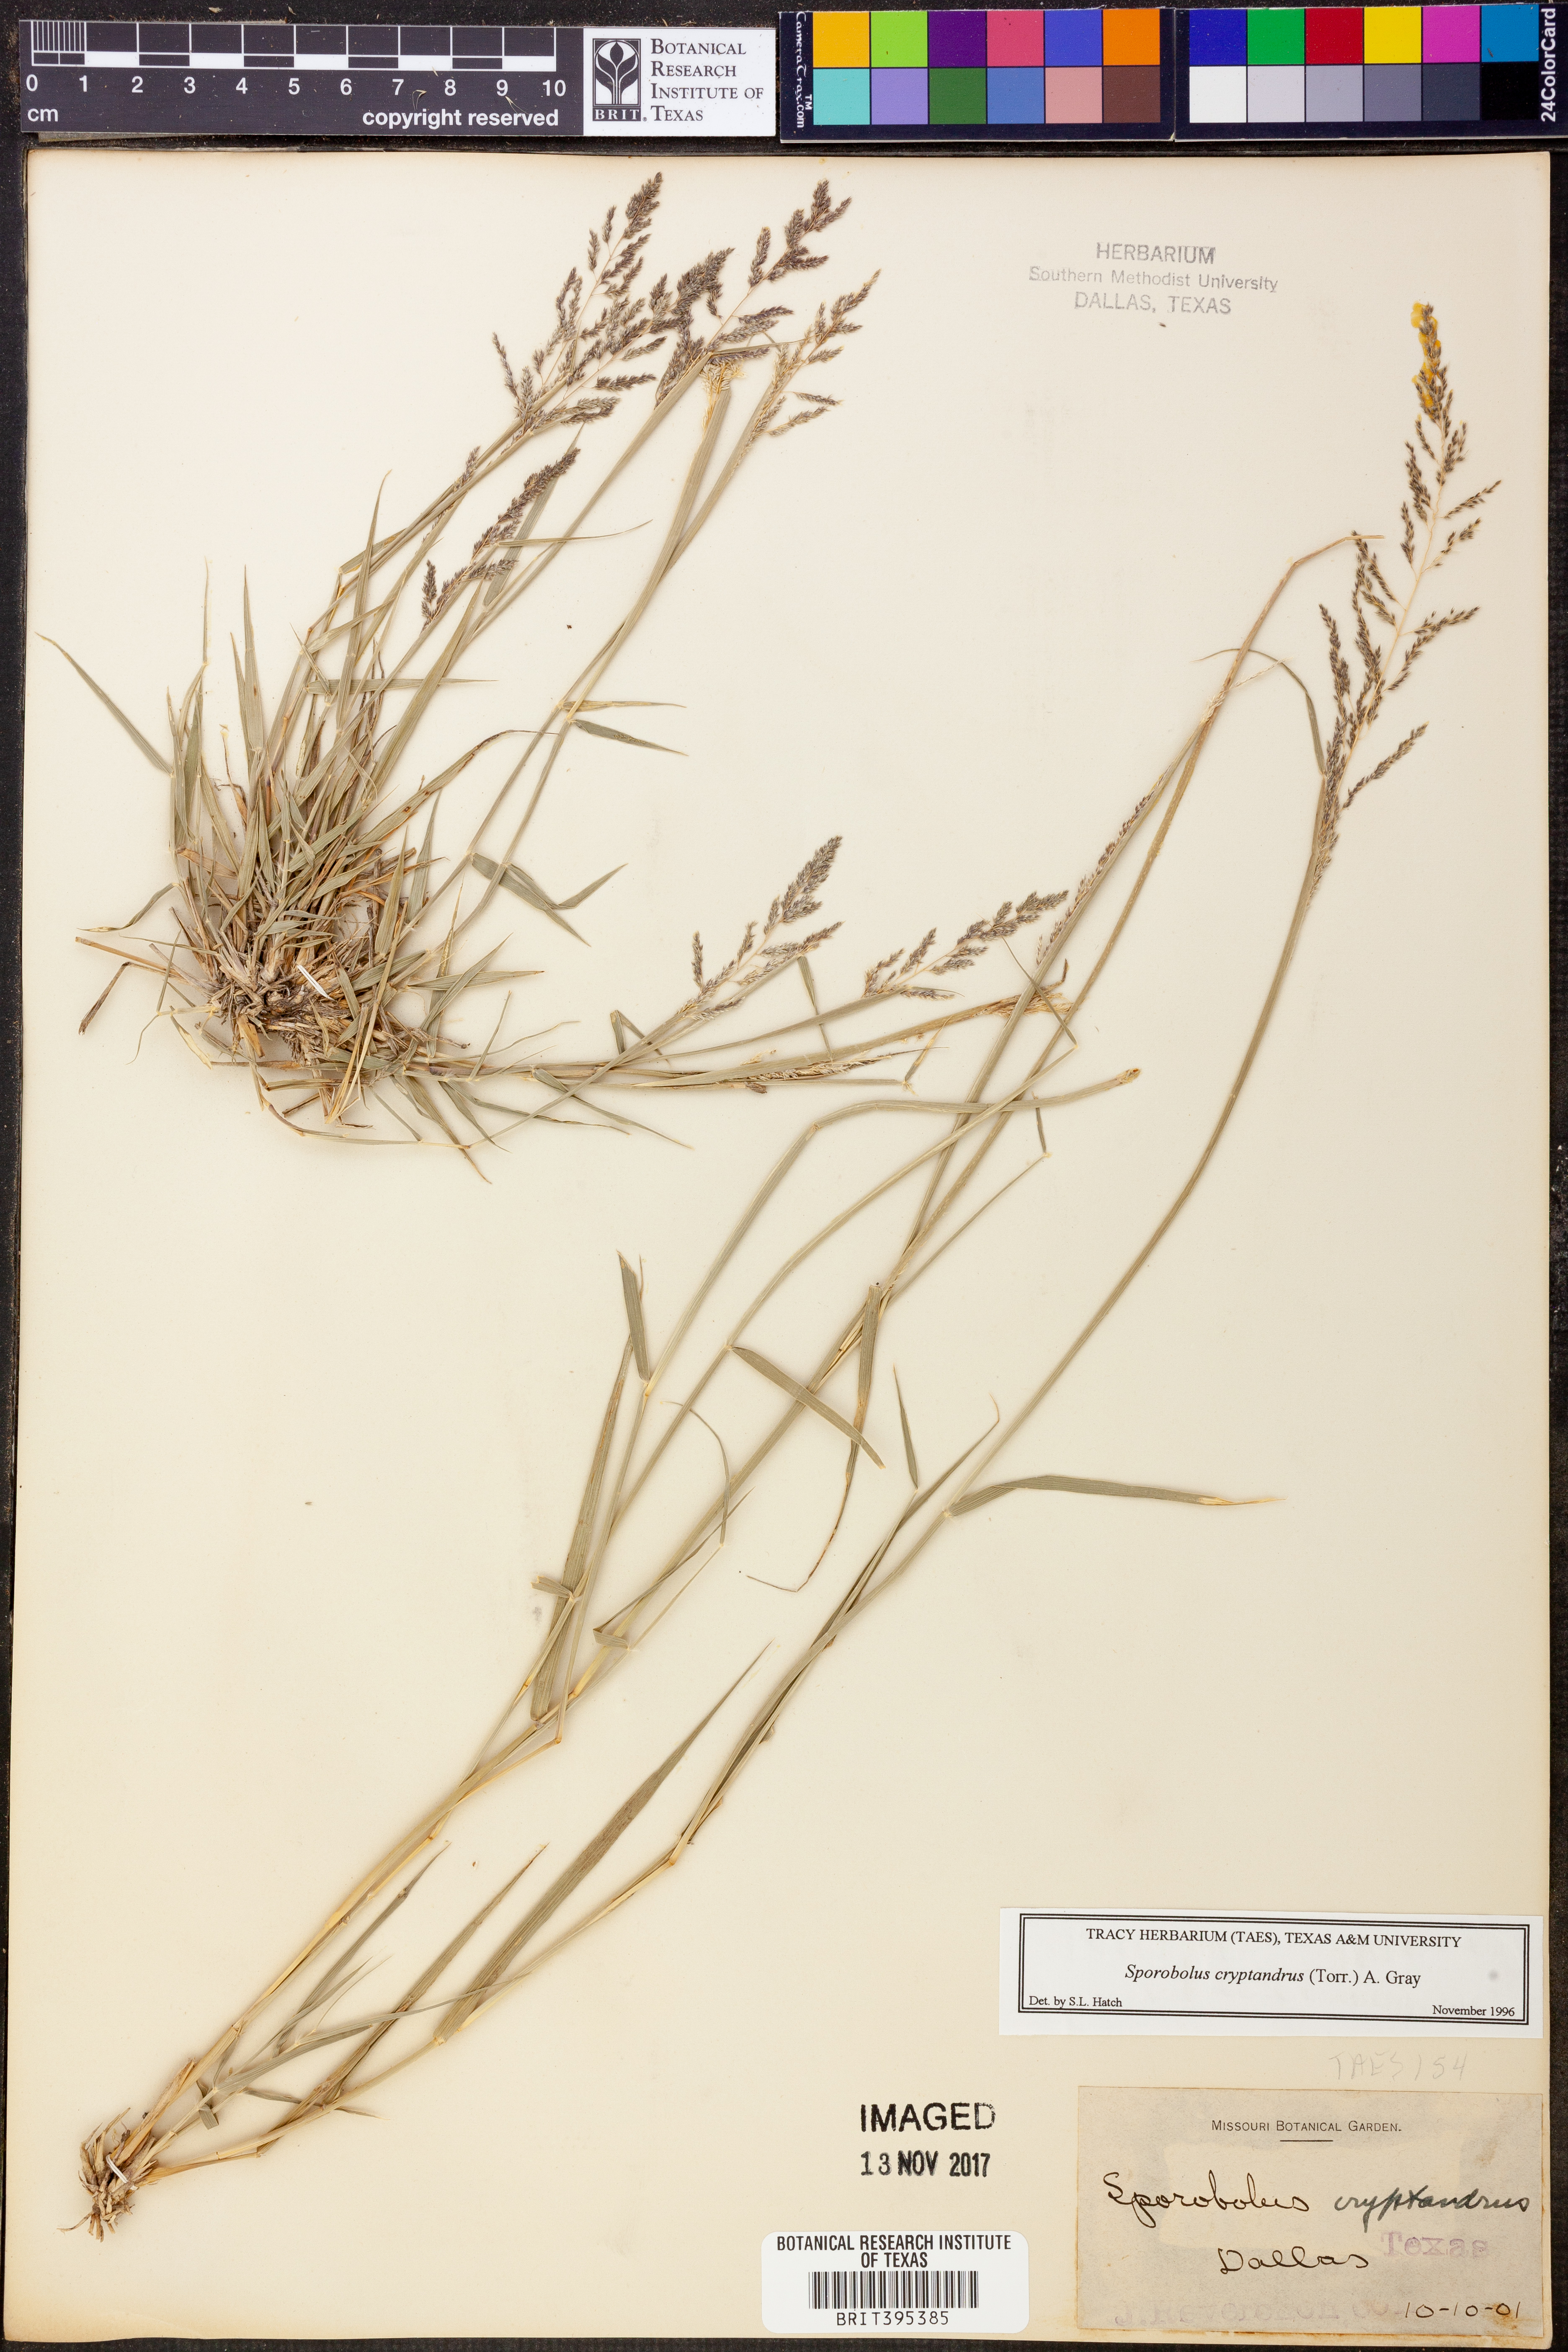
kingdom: Plantae
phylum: Tracheophyta
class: Liliopsida
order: Poales
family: Poaceae
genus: Sporobolus
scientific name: Sporobolus cryptandrus
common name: Sand dropseed
